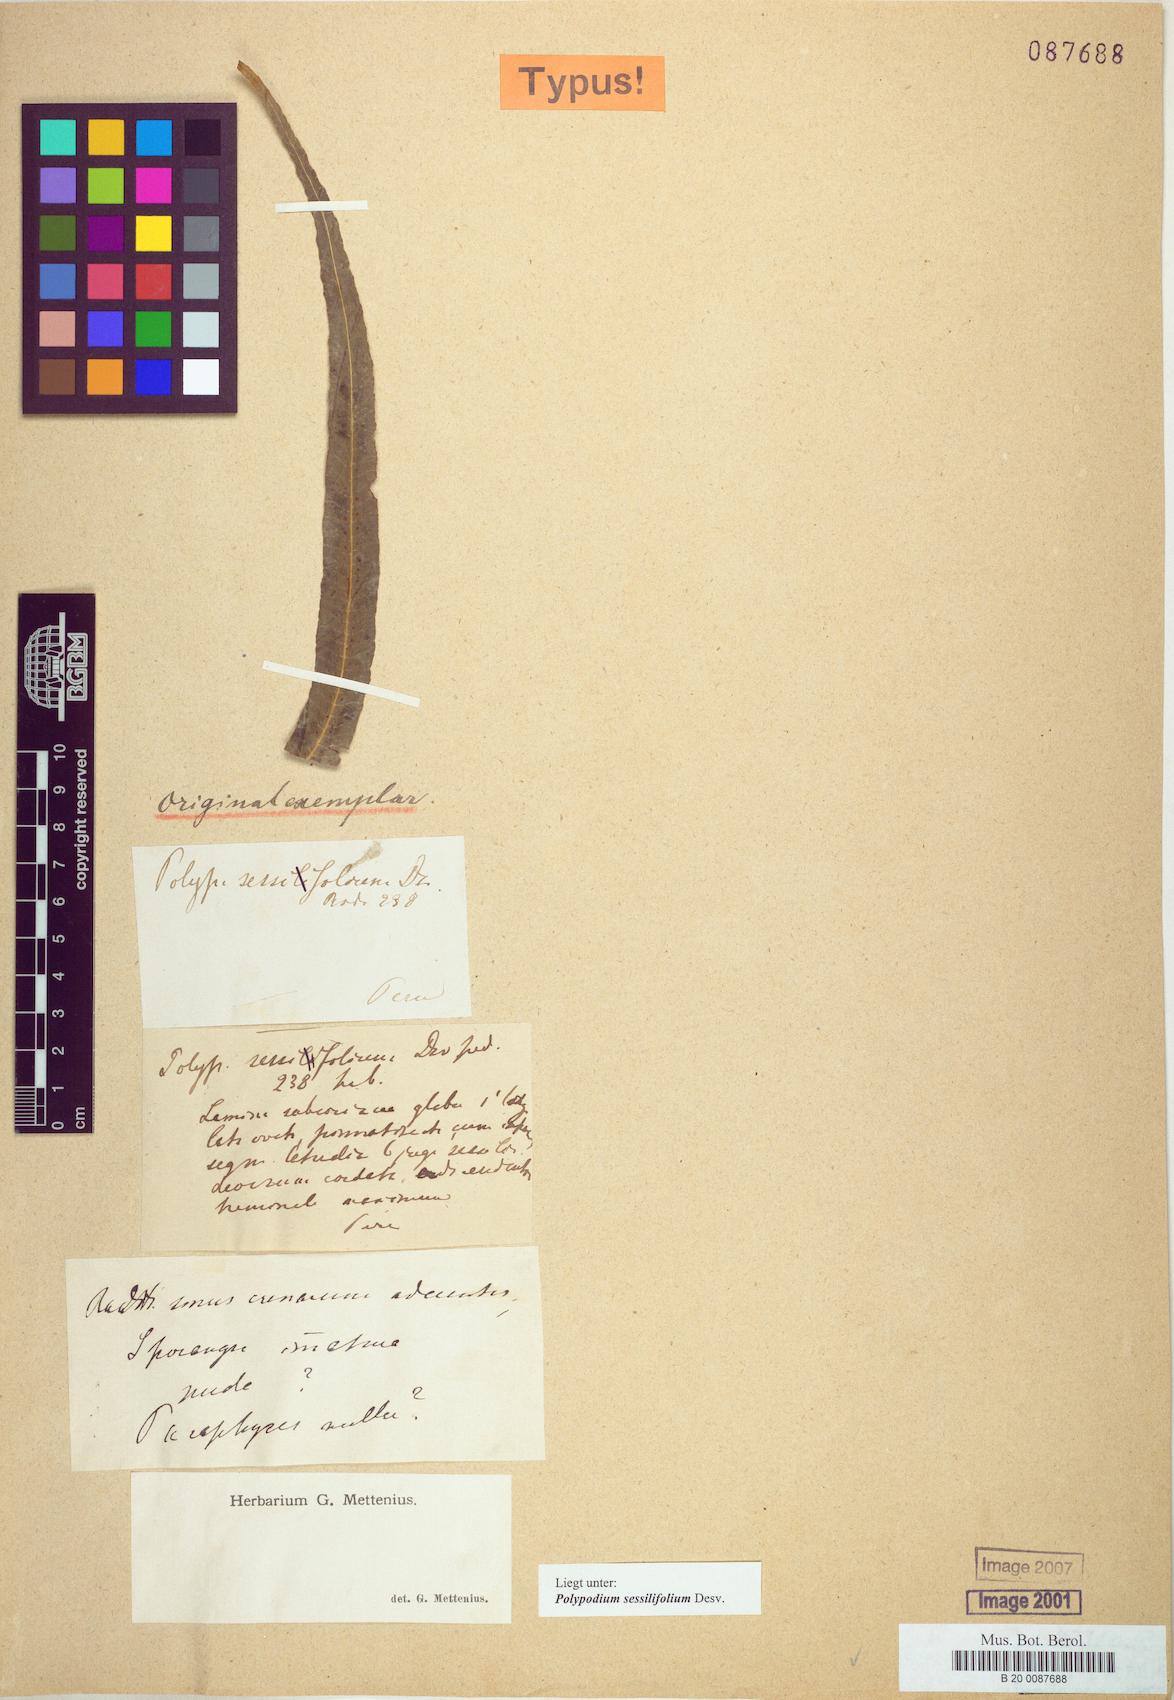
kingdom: Plantae
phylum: Tracheophyta
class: Polypodiopsida
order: Polypodiales
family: Polypodiaceae
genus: Serpocaulon
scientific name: Serpocaulon sessilifolium
